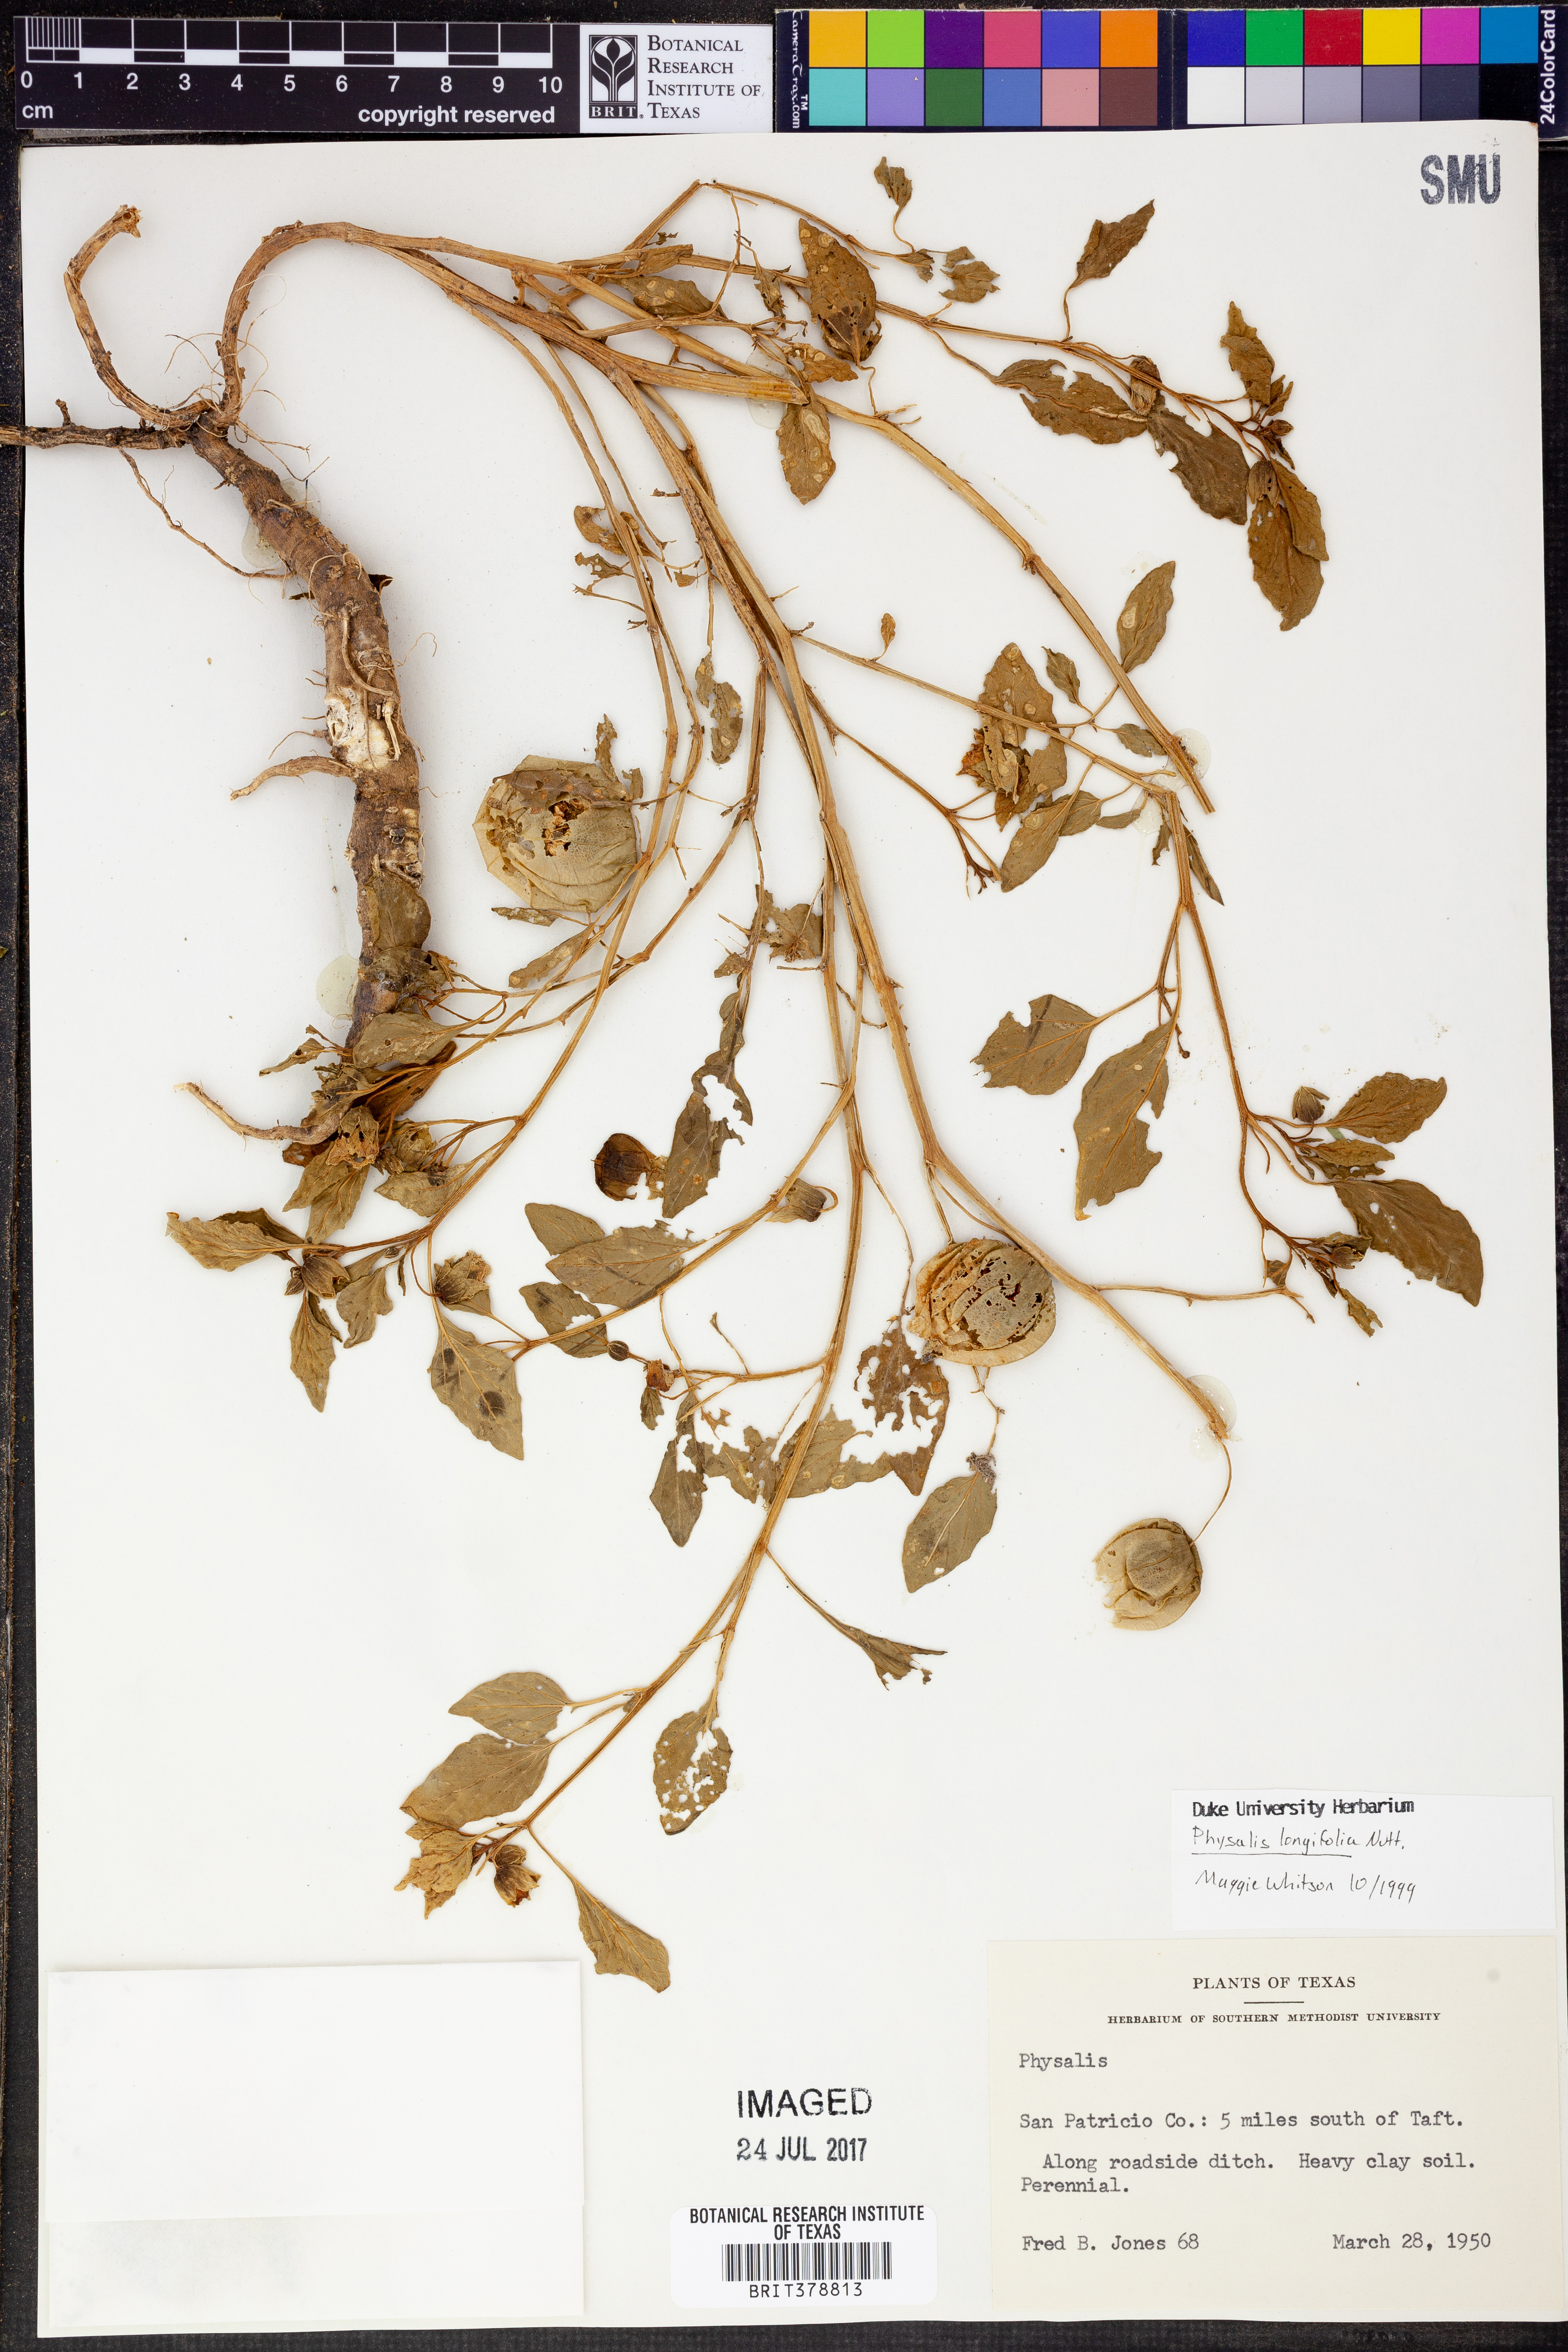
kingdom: Plantae
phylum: Tracheophyta
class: Magnoliopsida
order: Solanales
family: Solanaceae
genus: Physalis
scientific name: Physalis longifolia
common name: Common ground-cherry
